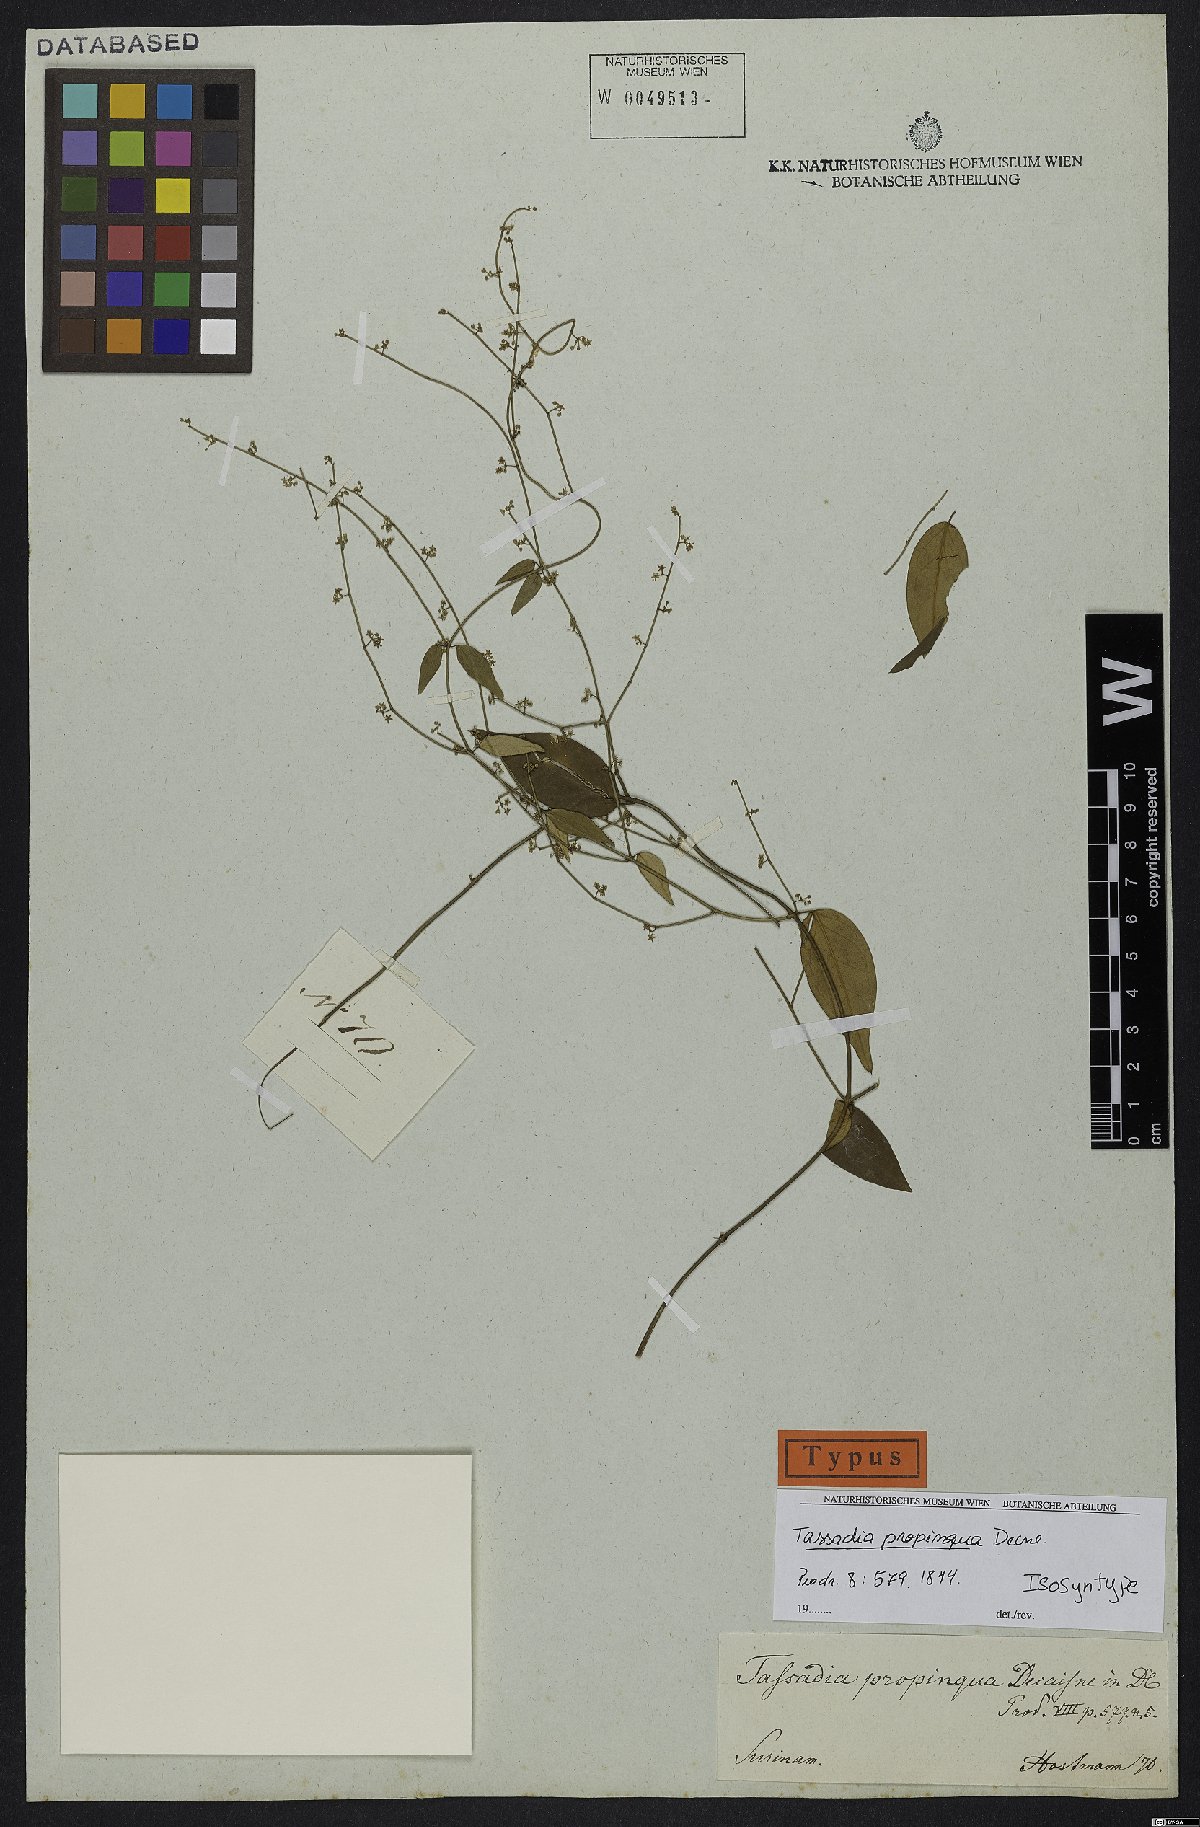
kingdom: Plantae
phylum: Tracheophyta
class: Magnoliopsida
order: Gentianales
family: Apocynaceae
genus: Tassadia
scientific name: Tassadia propinqua
